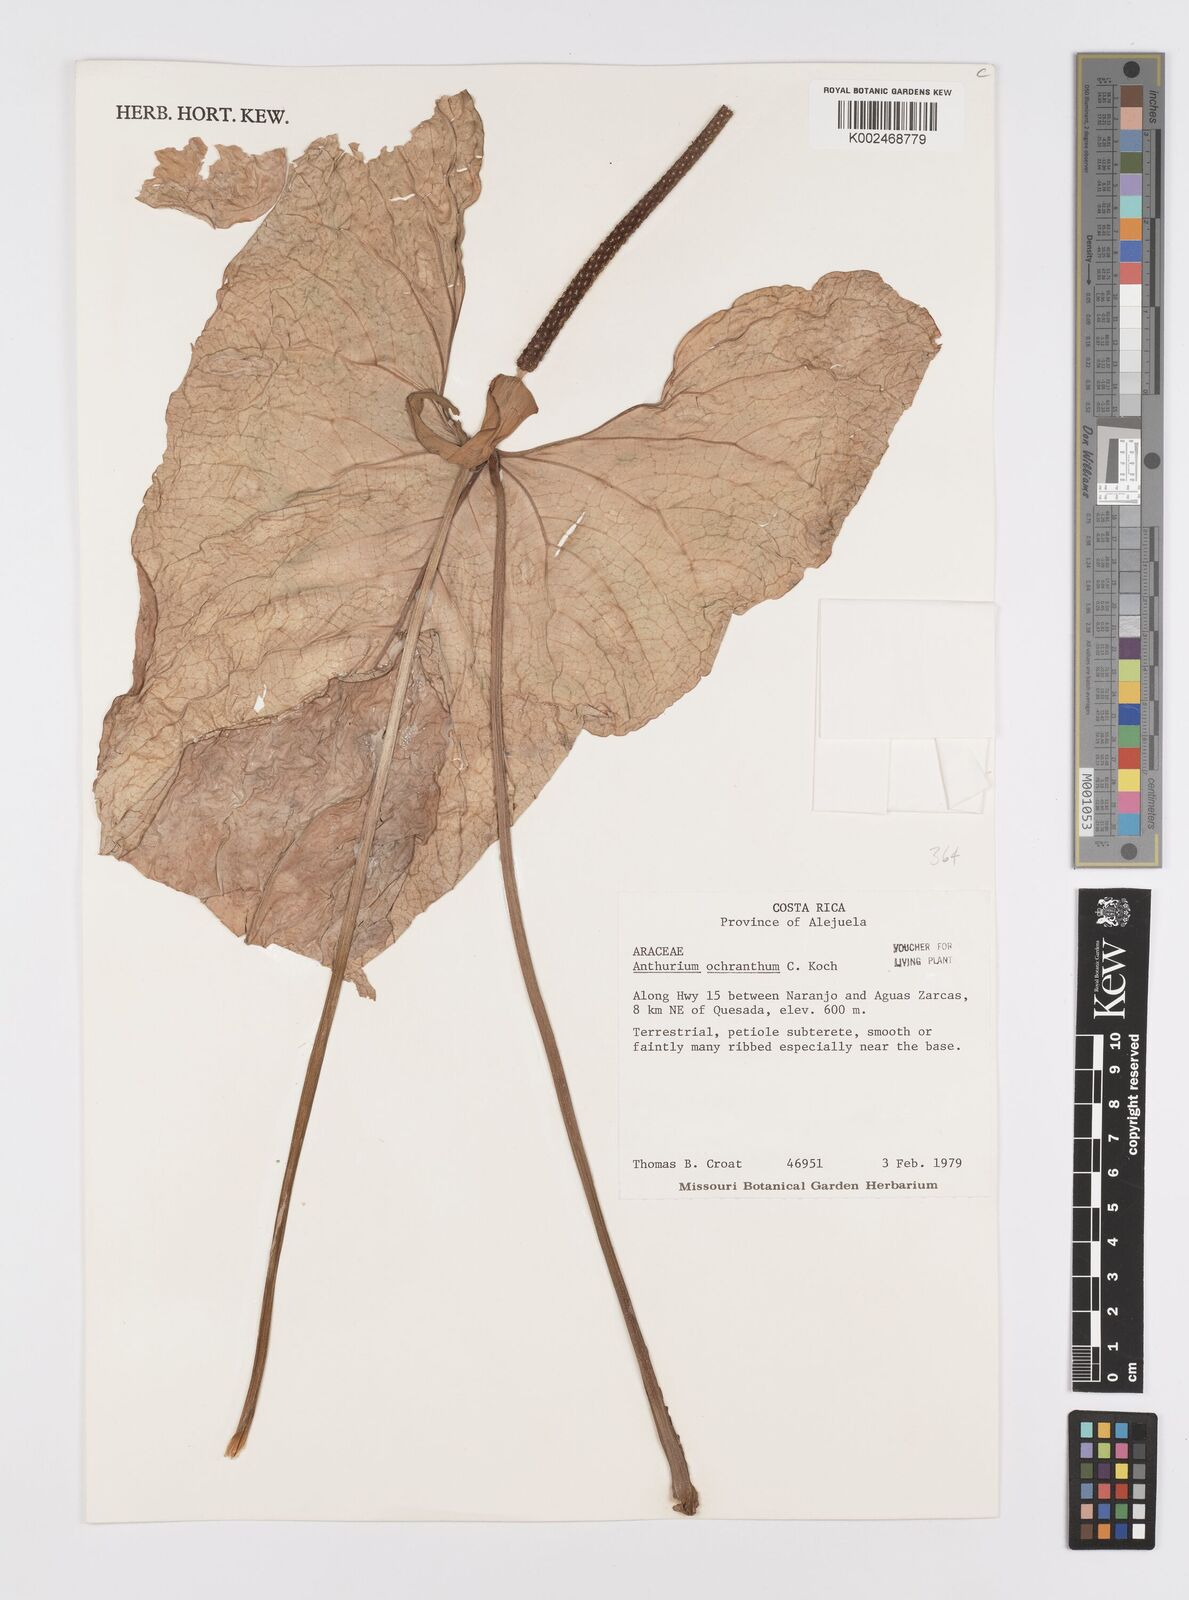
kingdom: Plantae
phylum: Tracheophyta
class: Liliopsida
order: Alismatales
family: Araceae
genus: Anthurium
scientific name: Anthurium ochranthum
